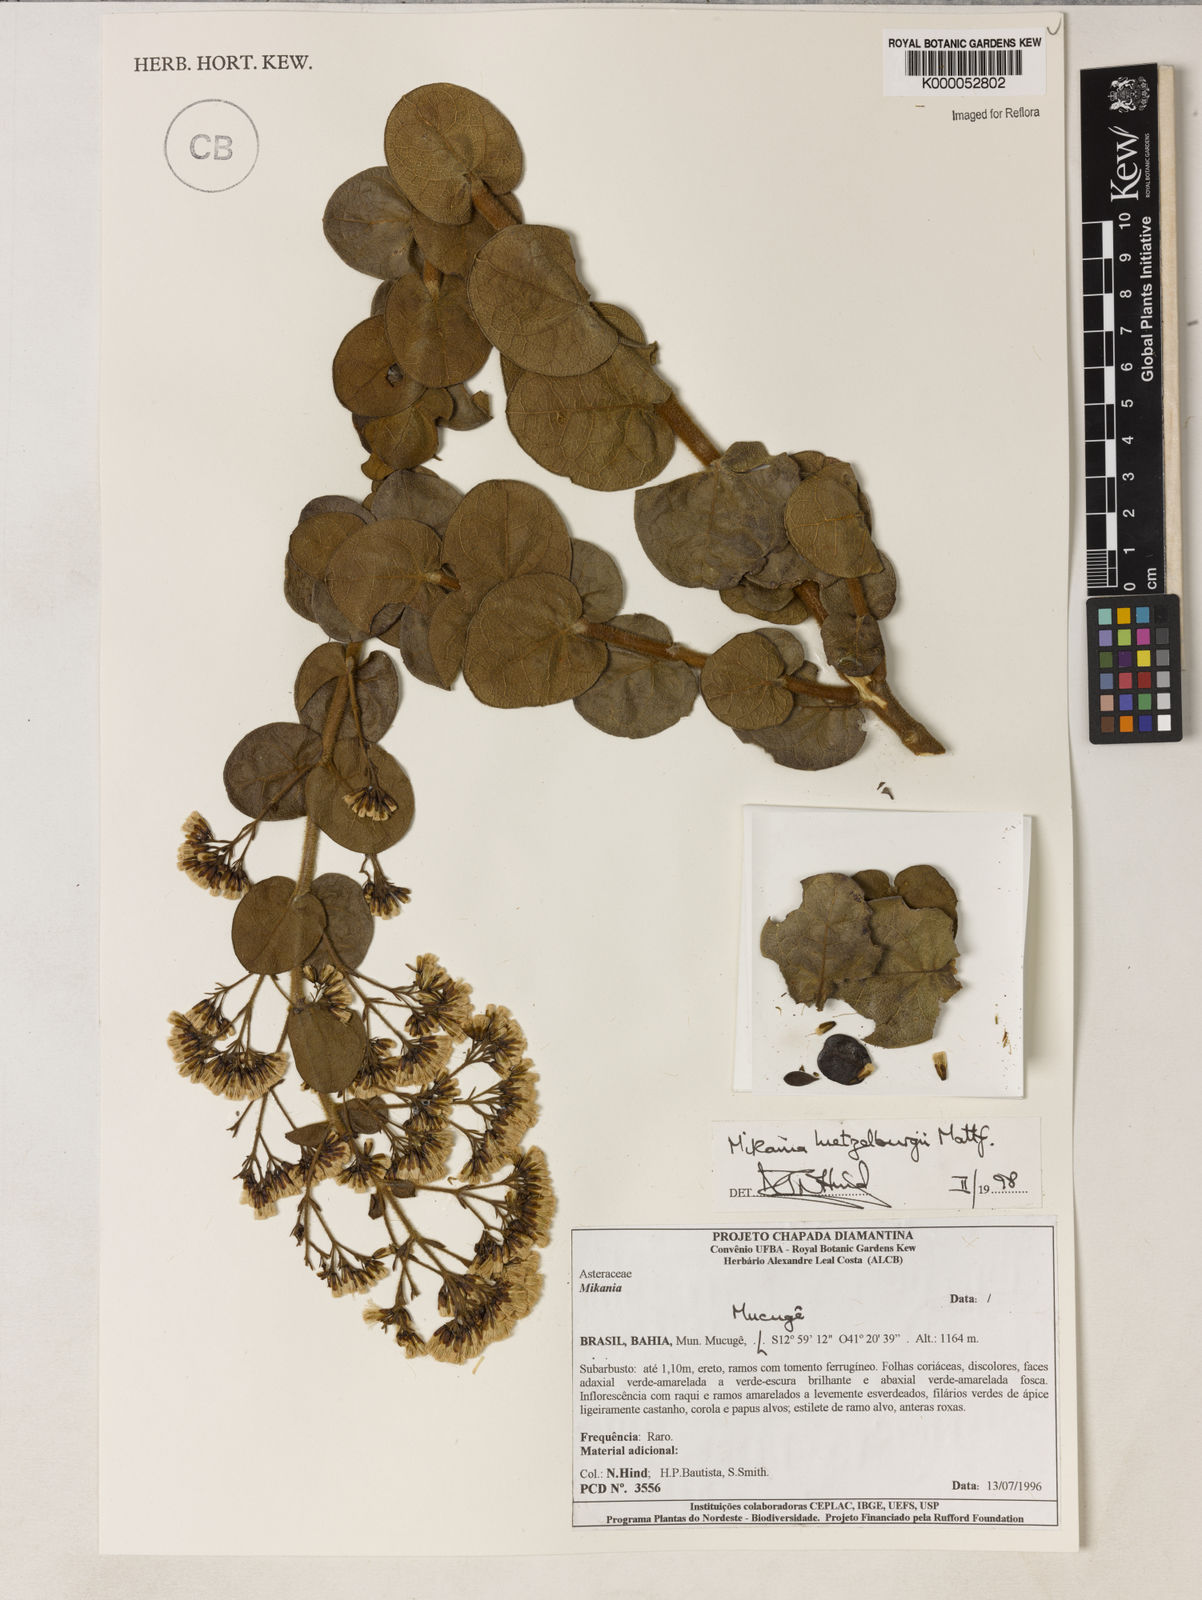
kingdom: Plantae
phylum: Tracheophyta
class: Magnoliopsida
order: Asterales
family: Asteraceae
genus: Mikania
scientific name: Mikania luetzelburgii
